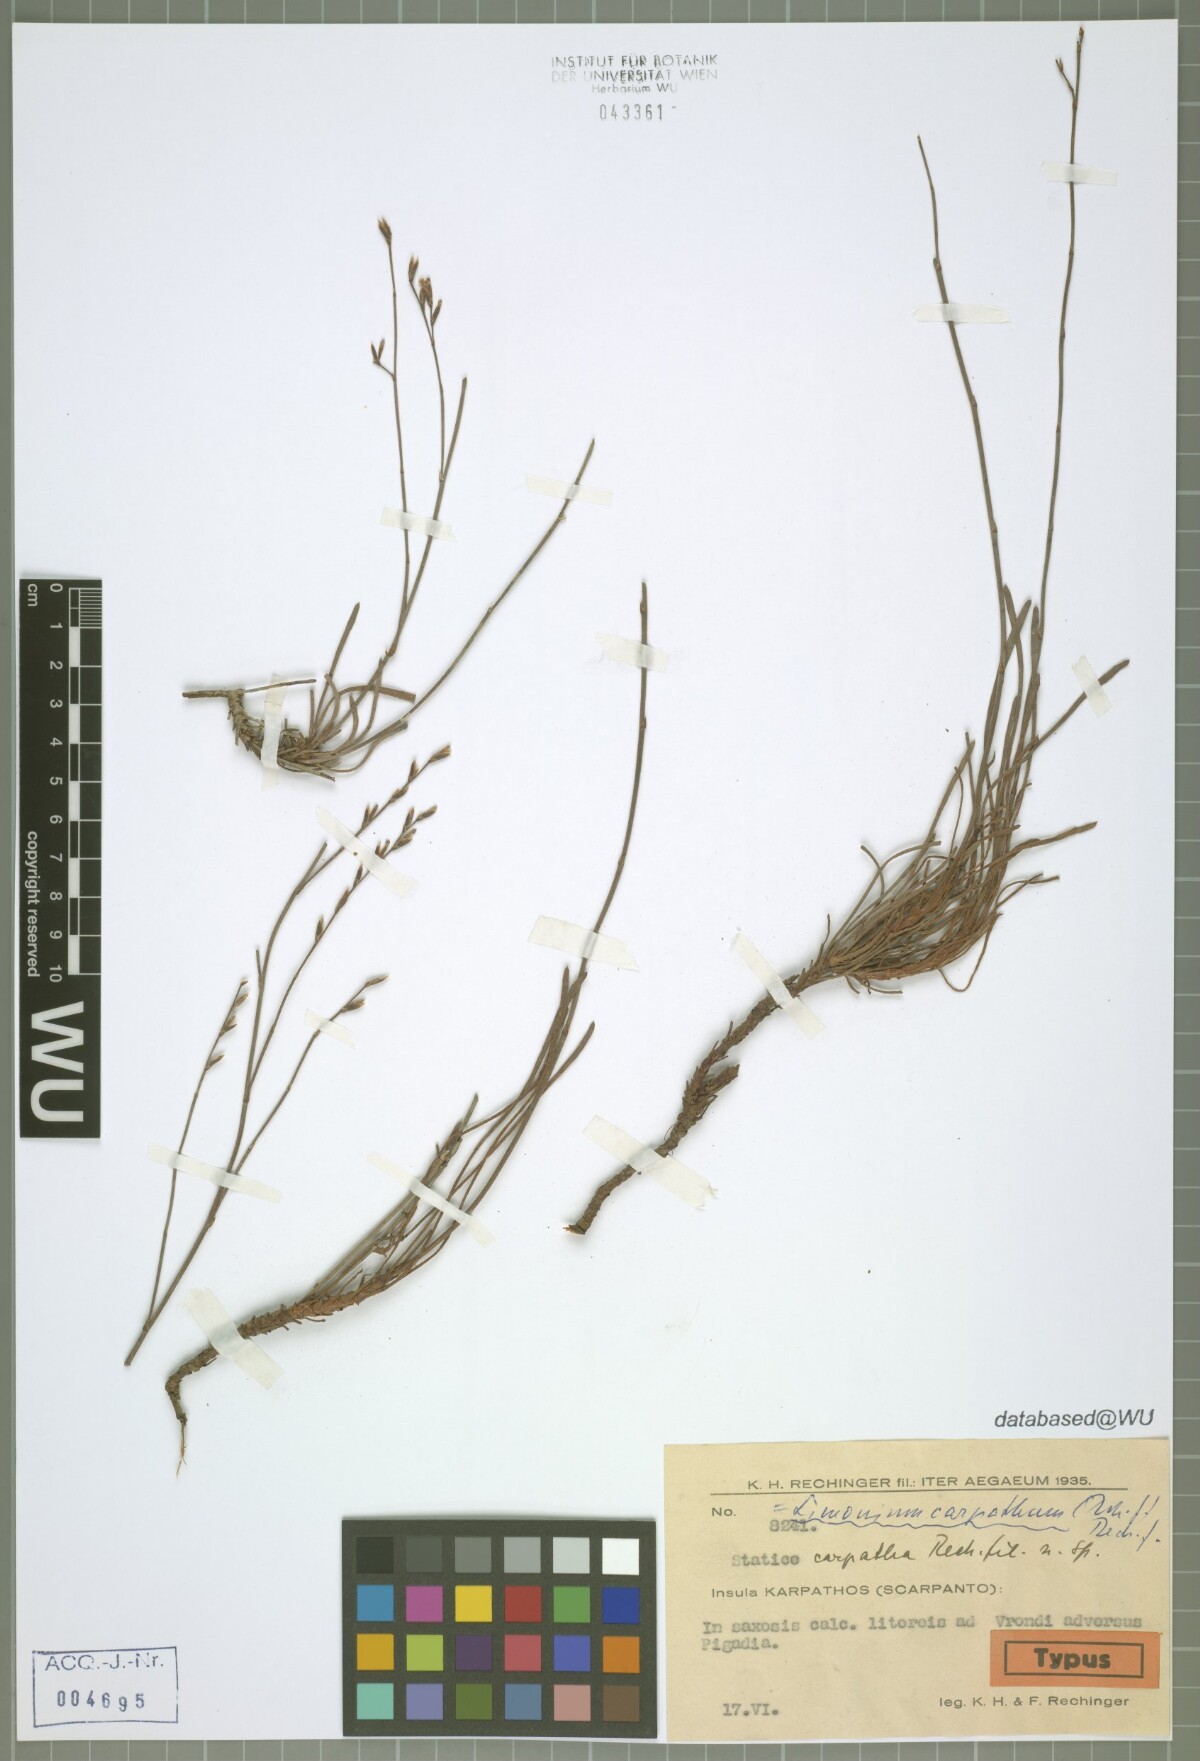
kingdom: Plantae
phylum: Tracheophyta
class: Magnoliopsida
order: Caryophyllales
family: Plumbaginaceae
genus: Limonium
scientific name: Limonium carpathum
